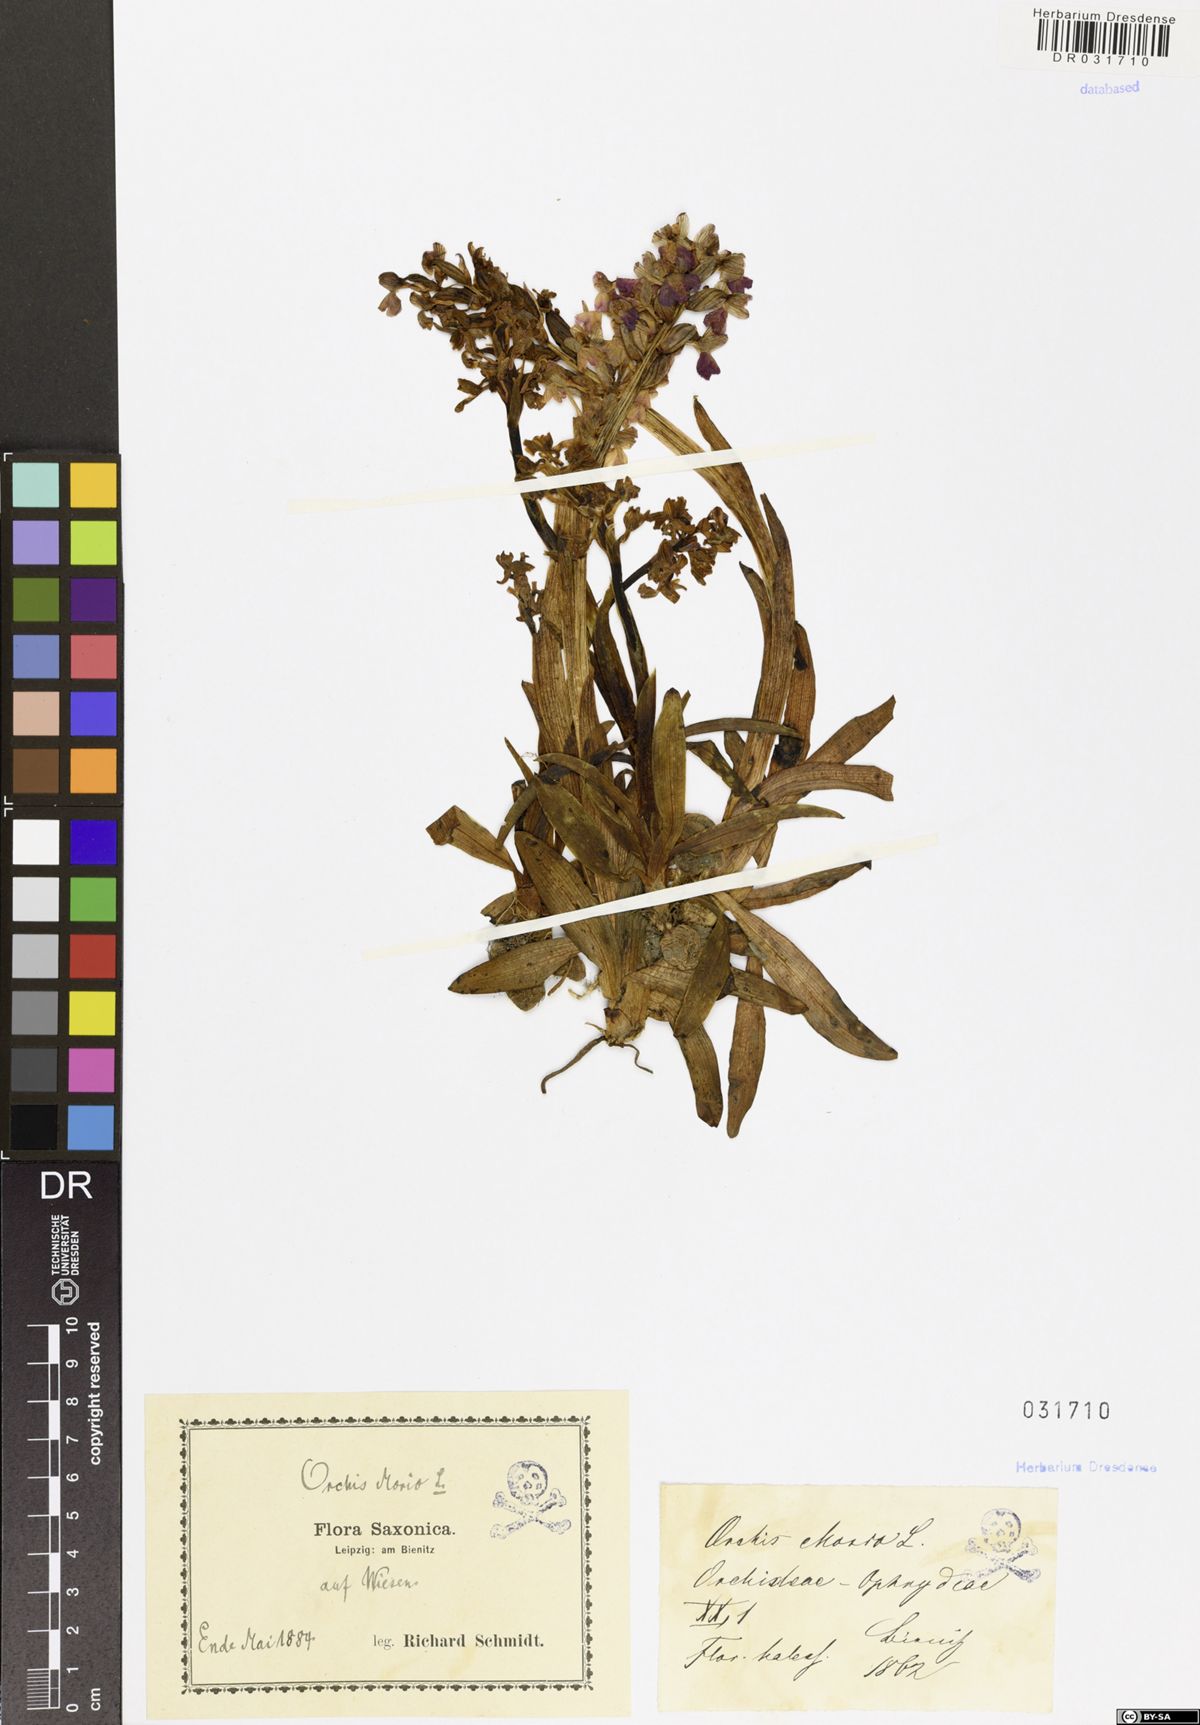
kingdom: Plantae
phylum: Tracheophyta
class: Liliopsida
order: Asparagales
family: Orchidaceae
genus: Anacamptis
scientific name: Anacamptis morio
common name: Green-winged orchid
